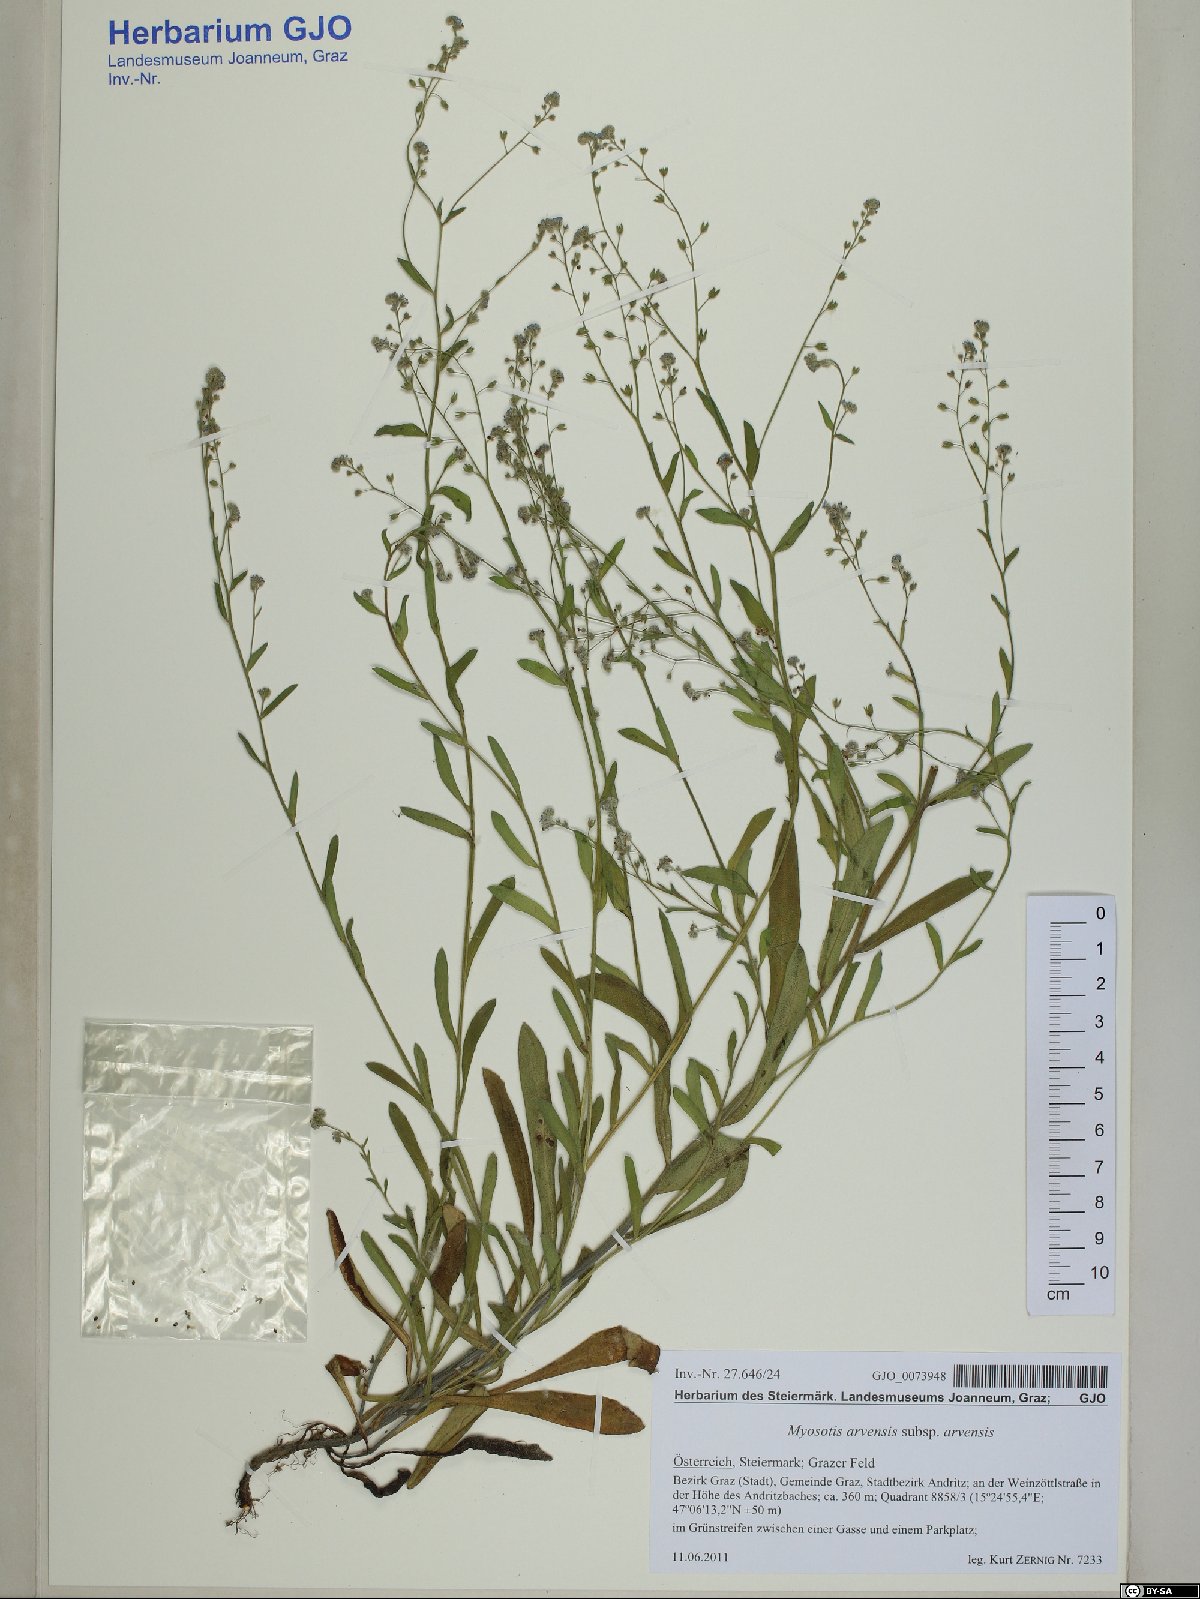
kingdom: Plantae
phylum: Tracheophyta
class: Magnoliopsida
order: Boraginales
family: Boraginaceae
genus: Myosotis
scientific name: Myosotis arvensis
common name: Field forget-me-not
